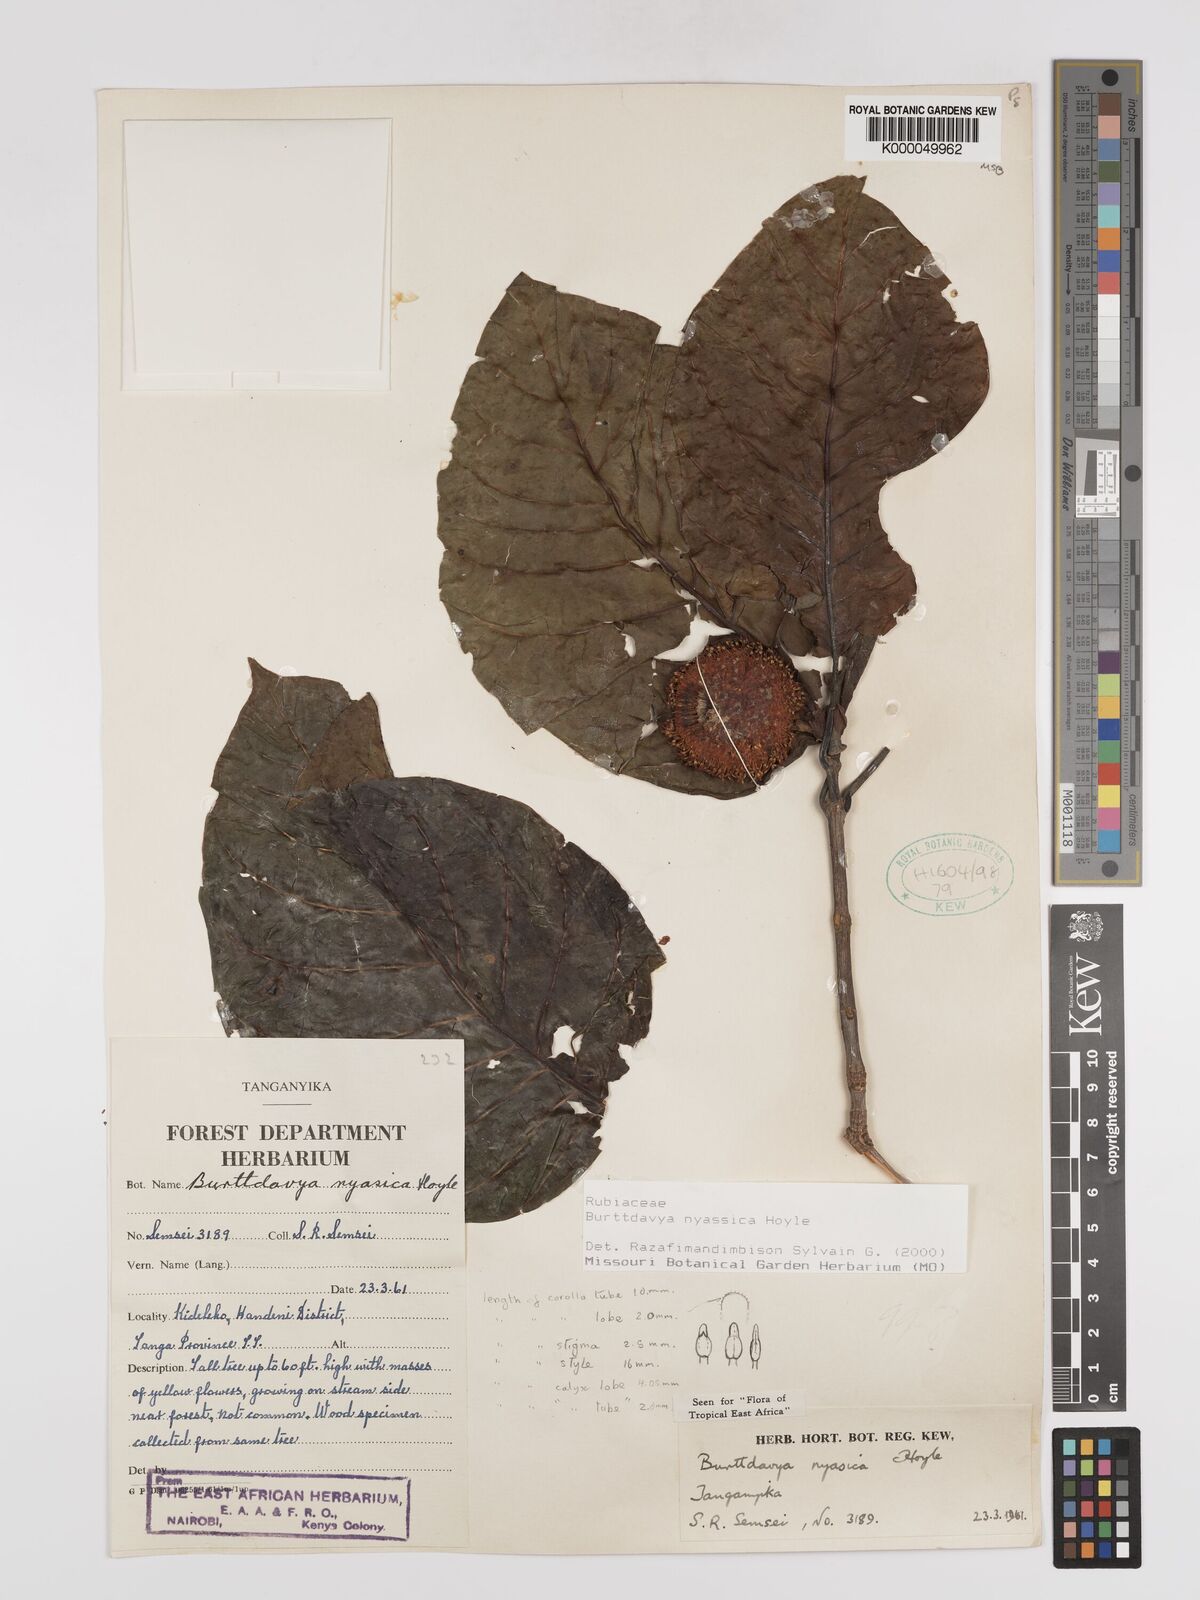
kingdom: Plantae
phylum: Tracheophyta
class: Magnoliopsida
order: Gentianales
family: Rubiaceae
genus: Nauclea
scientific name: Nauclea
